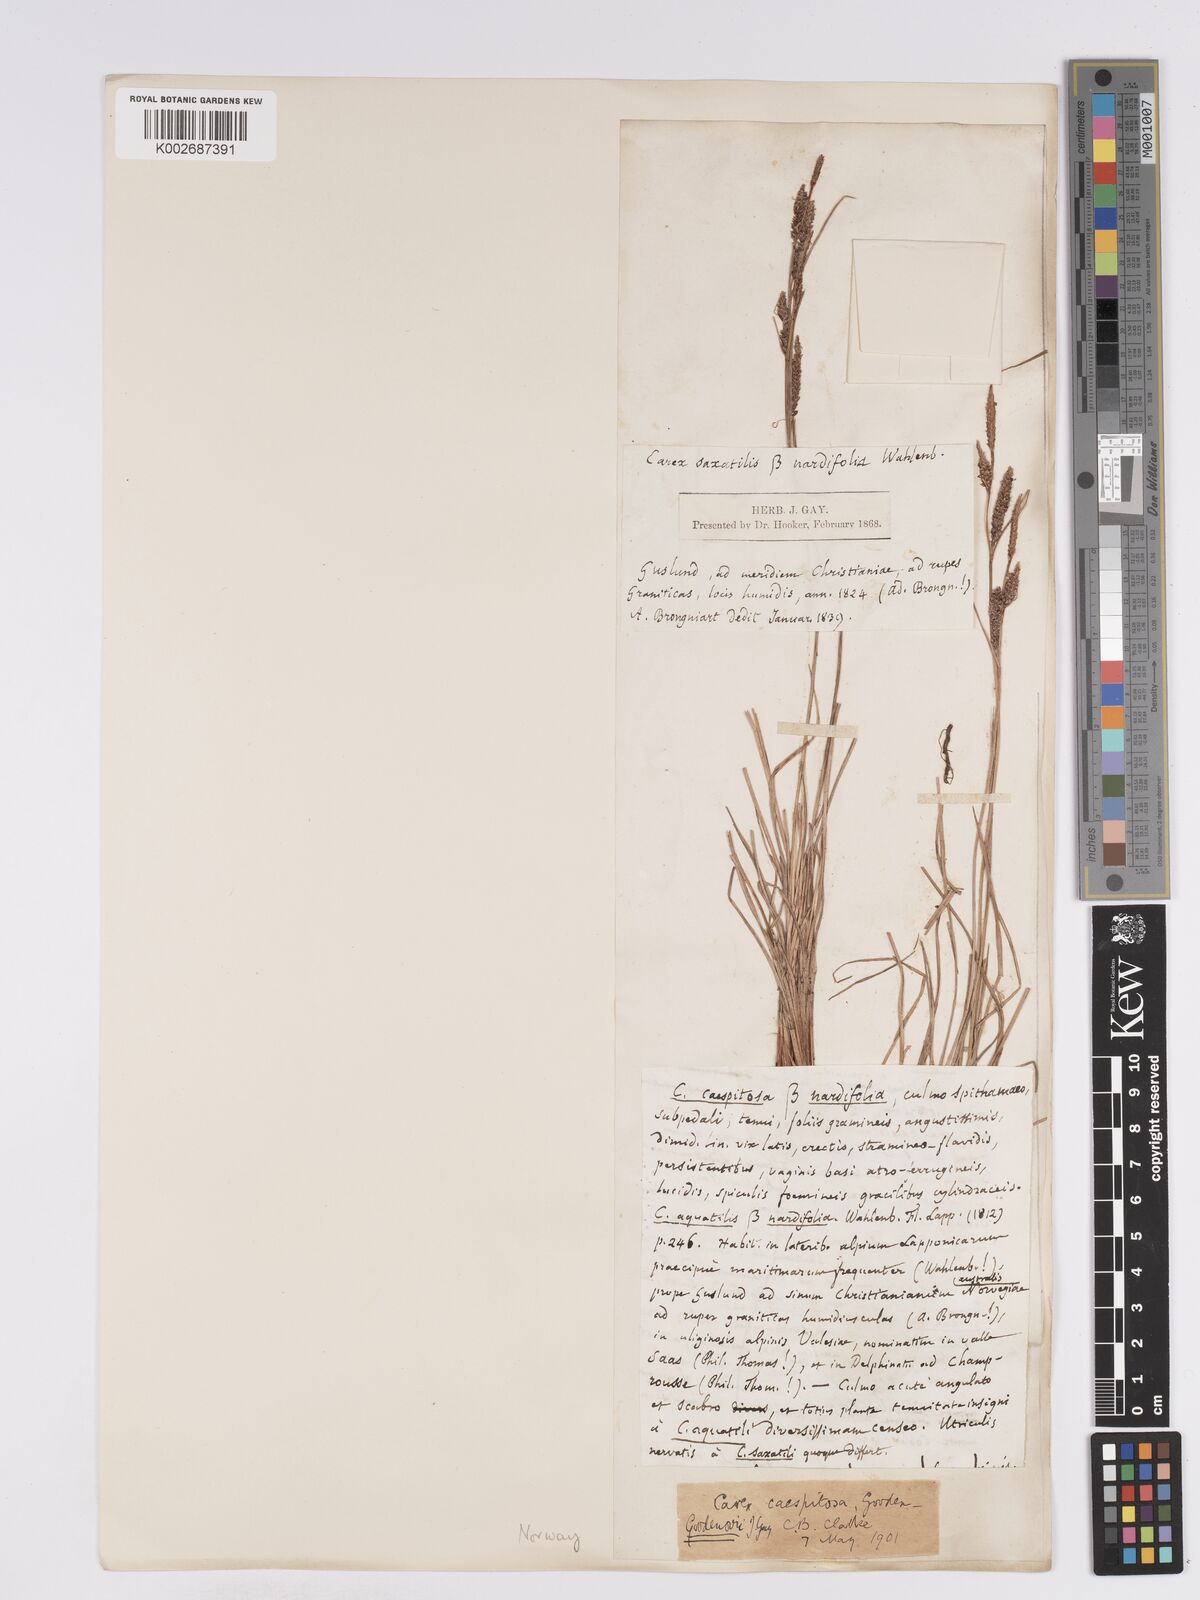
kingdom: Plantae
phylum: Tracheophyta
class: Liliopsida
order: Poales
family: Cyperaceae
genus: Carex
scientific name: Carex nigra
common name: Common sedge
